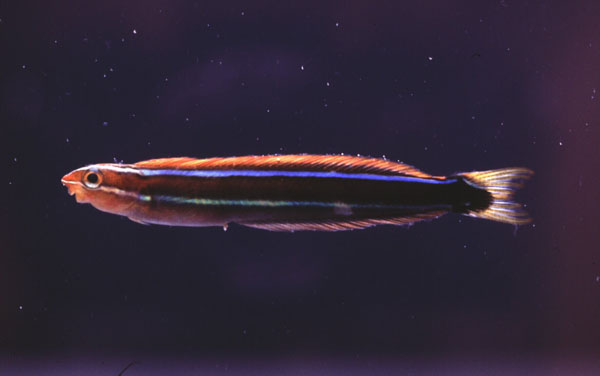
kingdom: Animalia
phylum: Chordata
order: Perciformes
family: Blenniidae
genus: Plagiotremus
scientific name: Plagiotremus rhinorhynchos
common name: Bluestriped fangblenny
